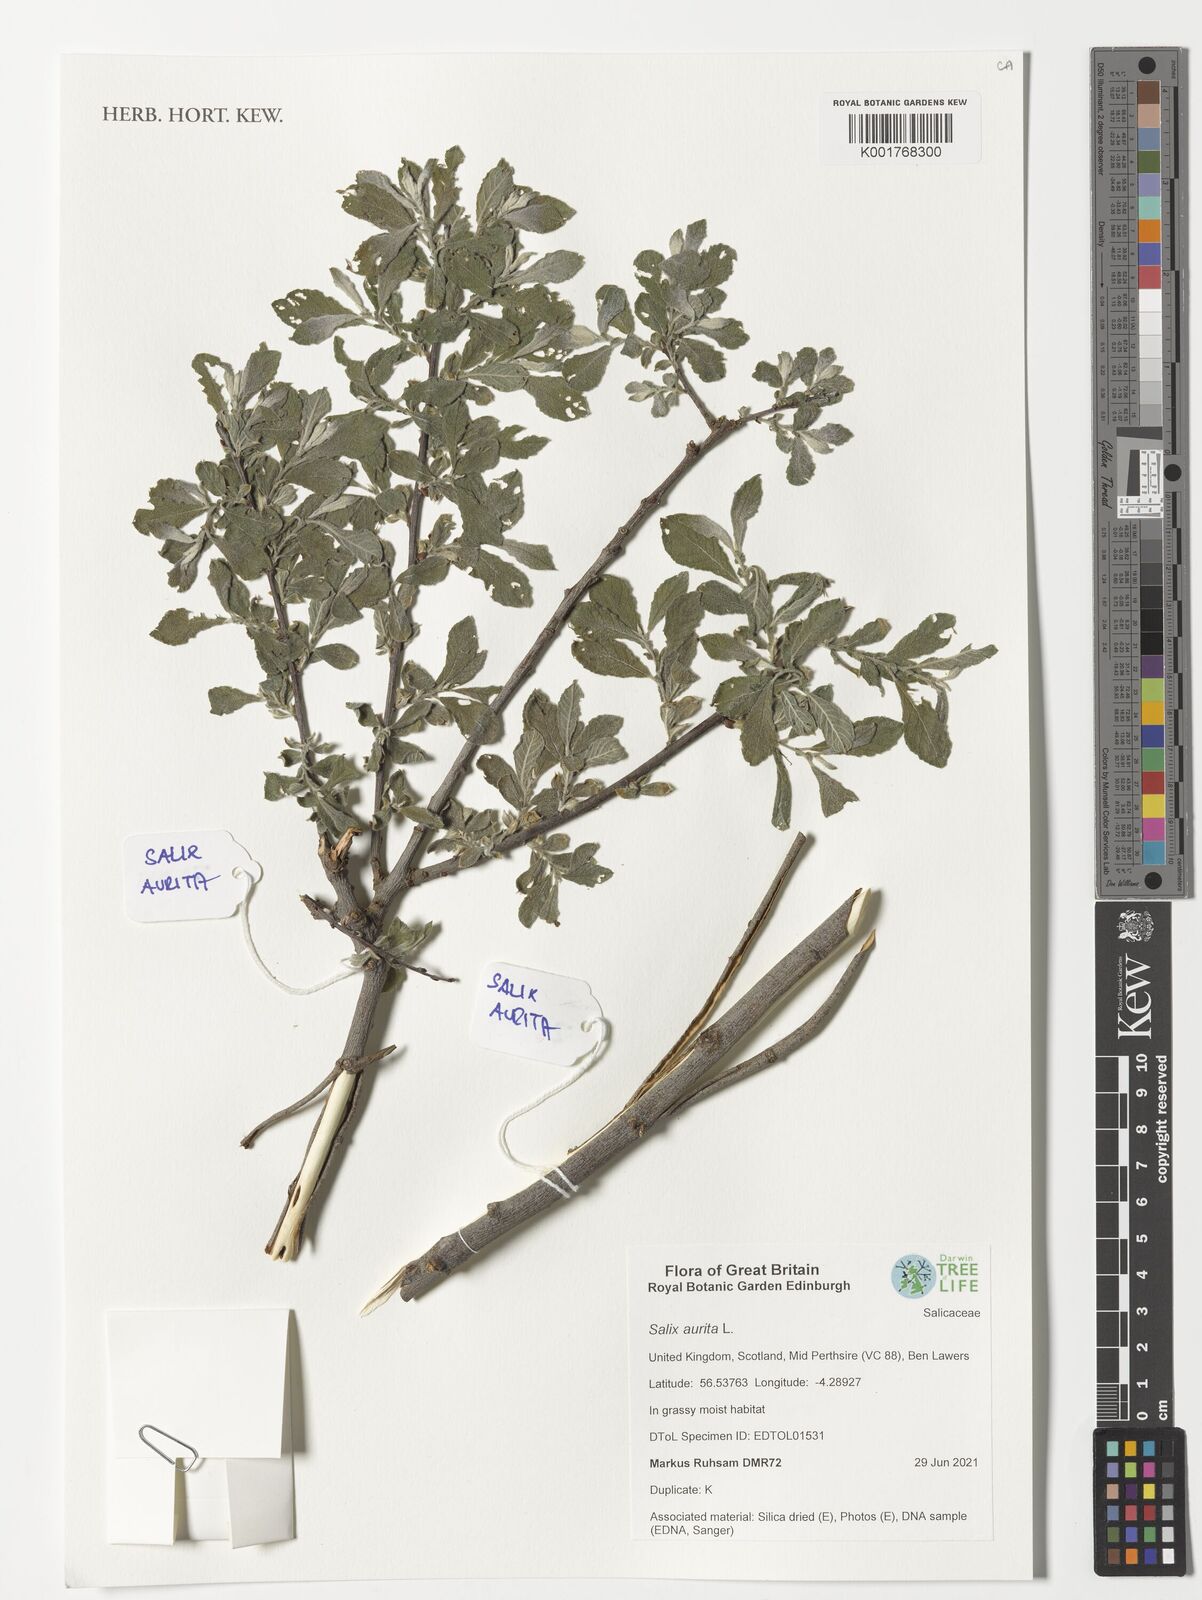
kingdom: Plantae
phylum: Tracheophyta
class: Magnoliopsida
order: Malpighiales
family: Salicaceae
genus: Salix
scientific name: Salix aurita
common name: Eared willow
